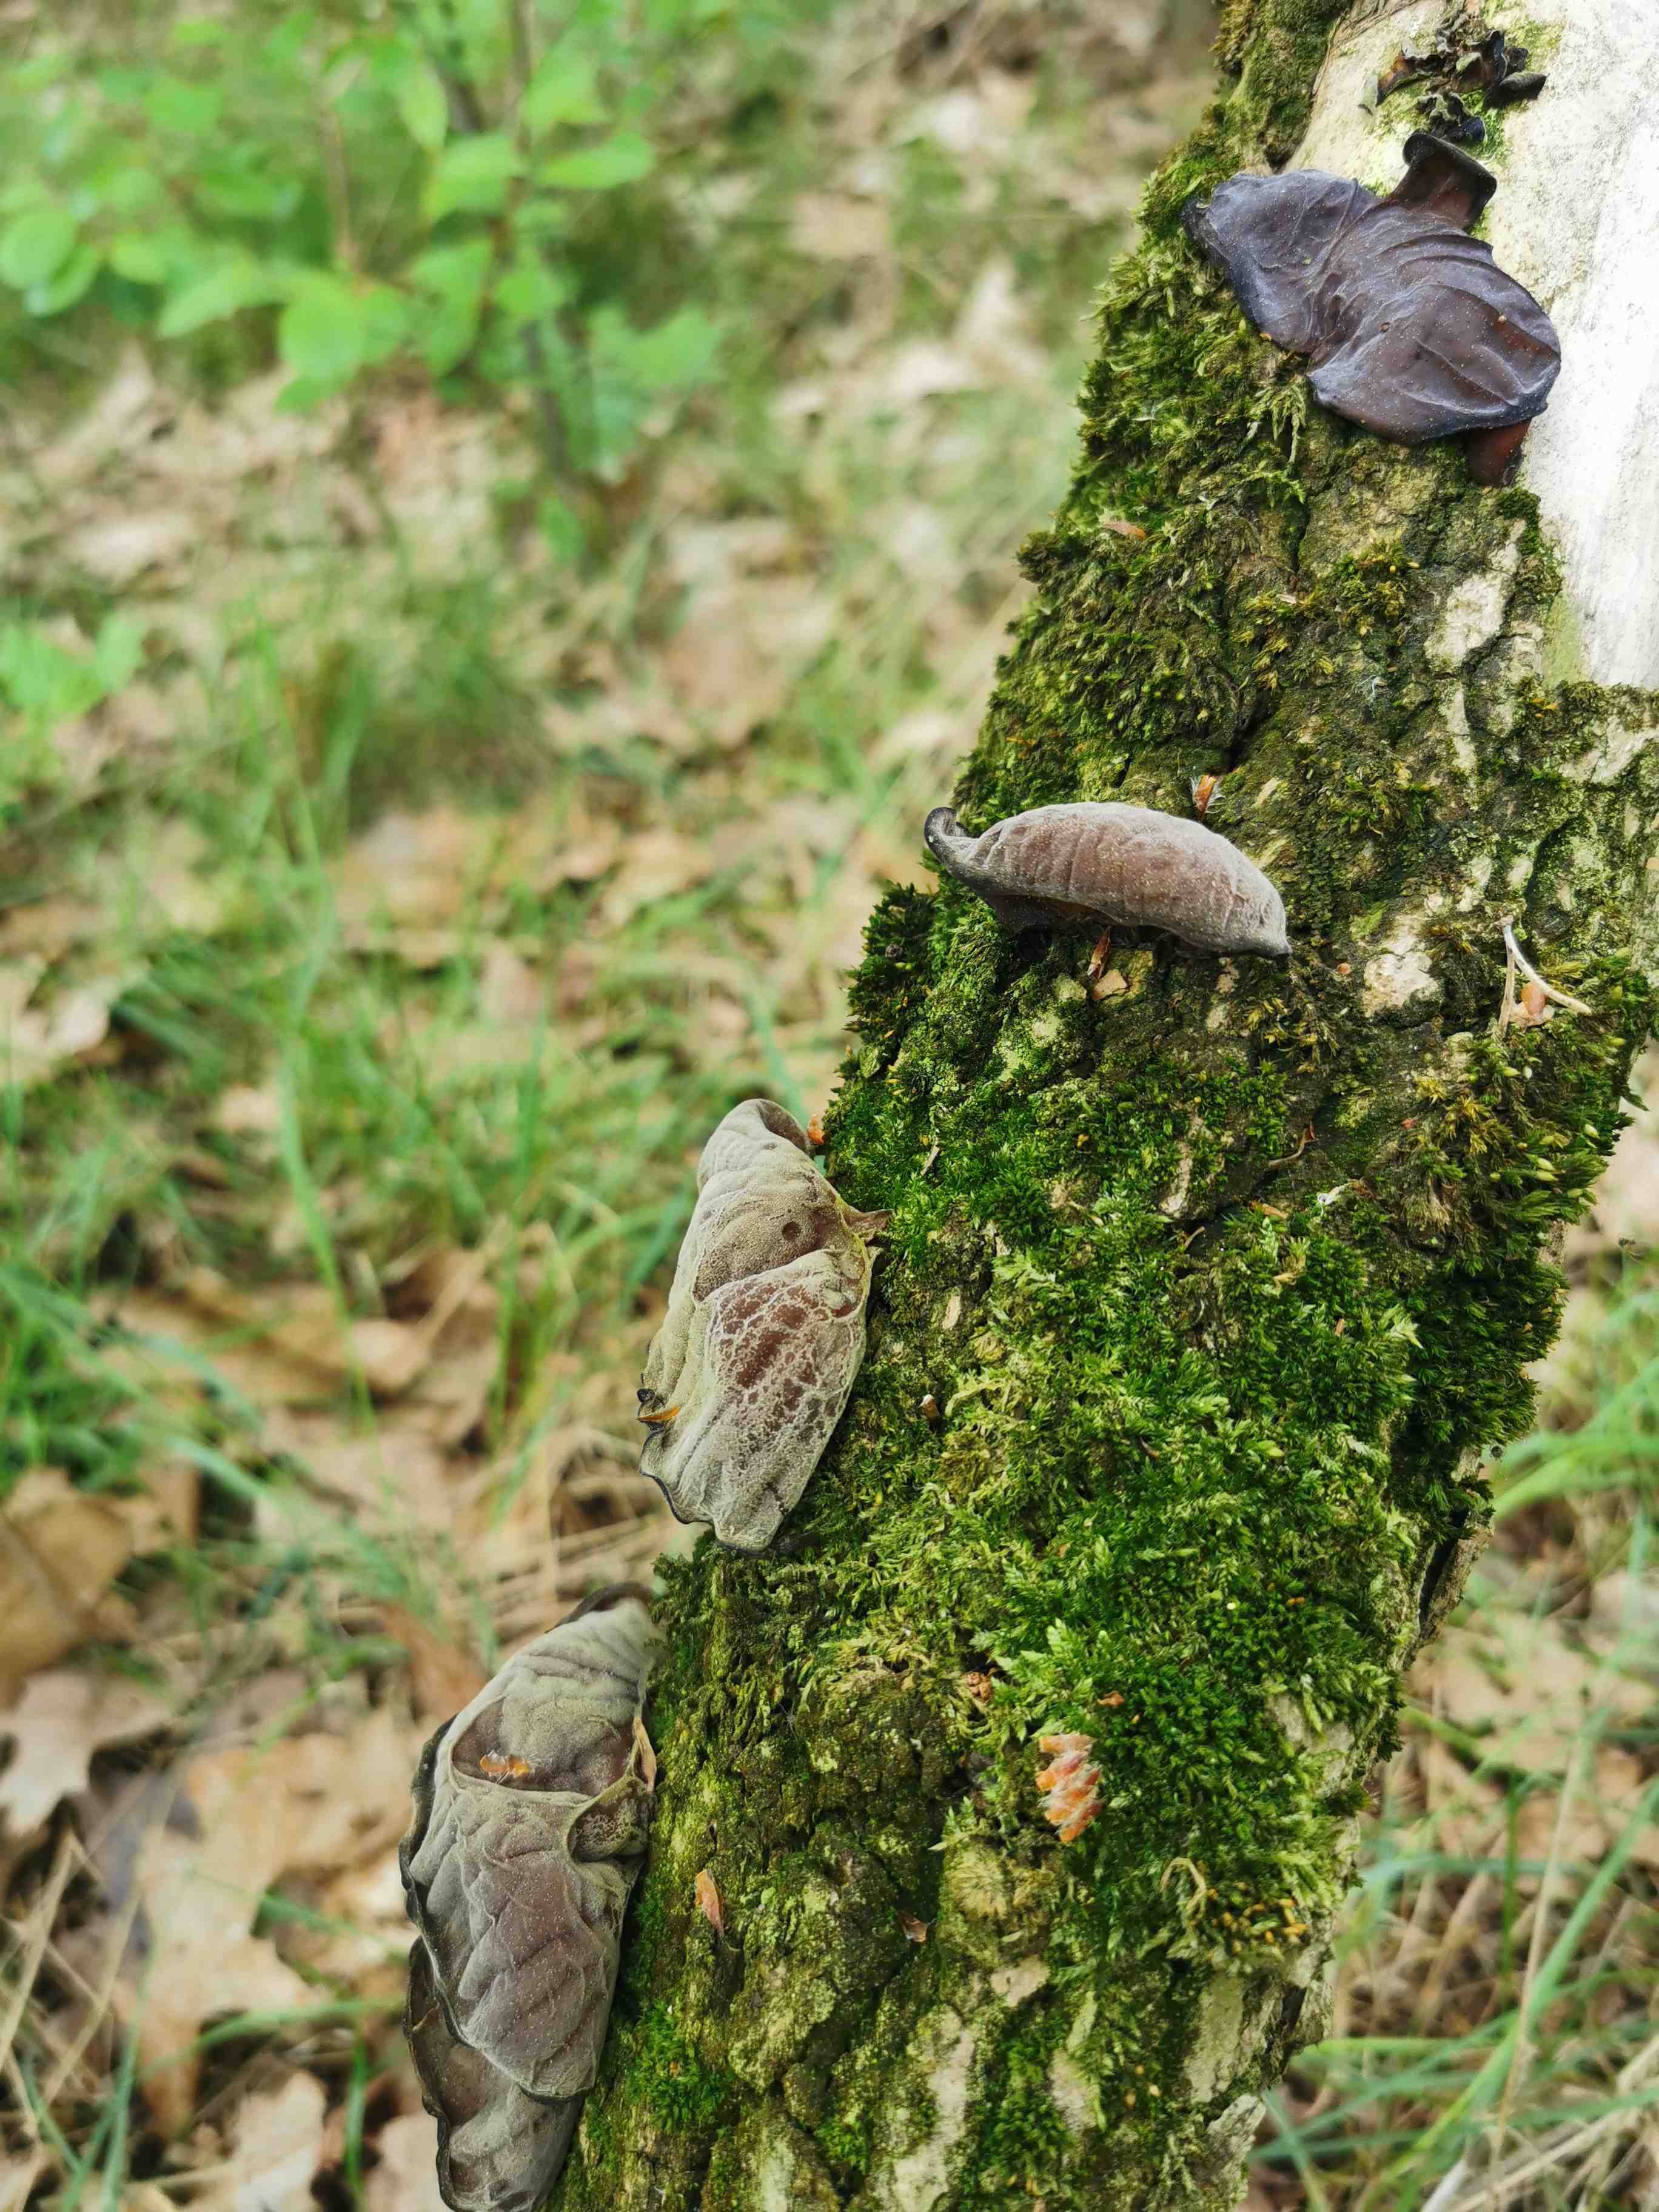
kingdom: Fungi
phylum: Basidiomycota
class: Agaricomycetes
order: Auriculariales
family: Auriculariaceae
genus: Auricularia
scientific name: Auricularia auricula-judae
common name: almindelig judasøre
